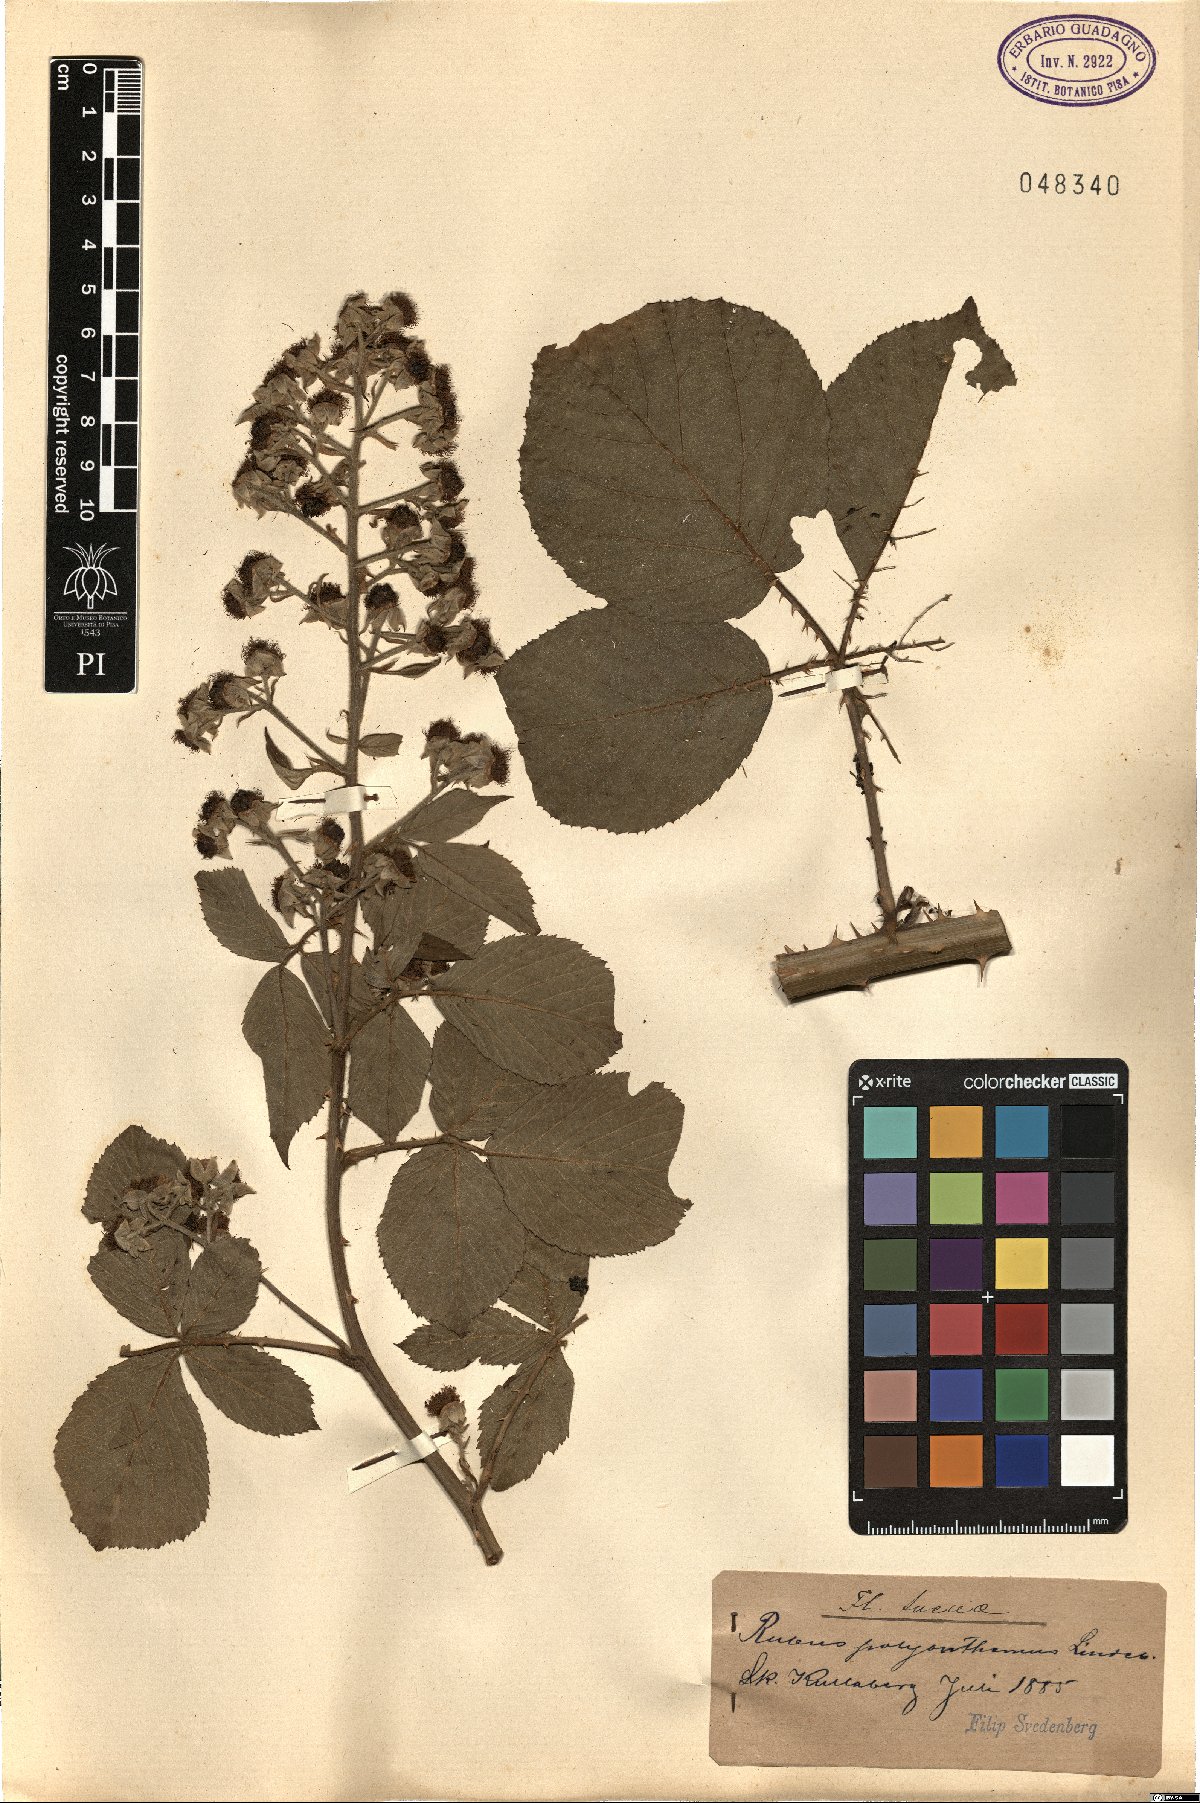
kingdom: Plantae
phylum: Tracheophyta
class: Magnoliopsida
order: Rosales
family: Rosaceae
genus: Rubus
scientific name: Rubus polyanthemus
